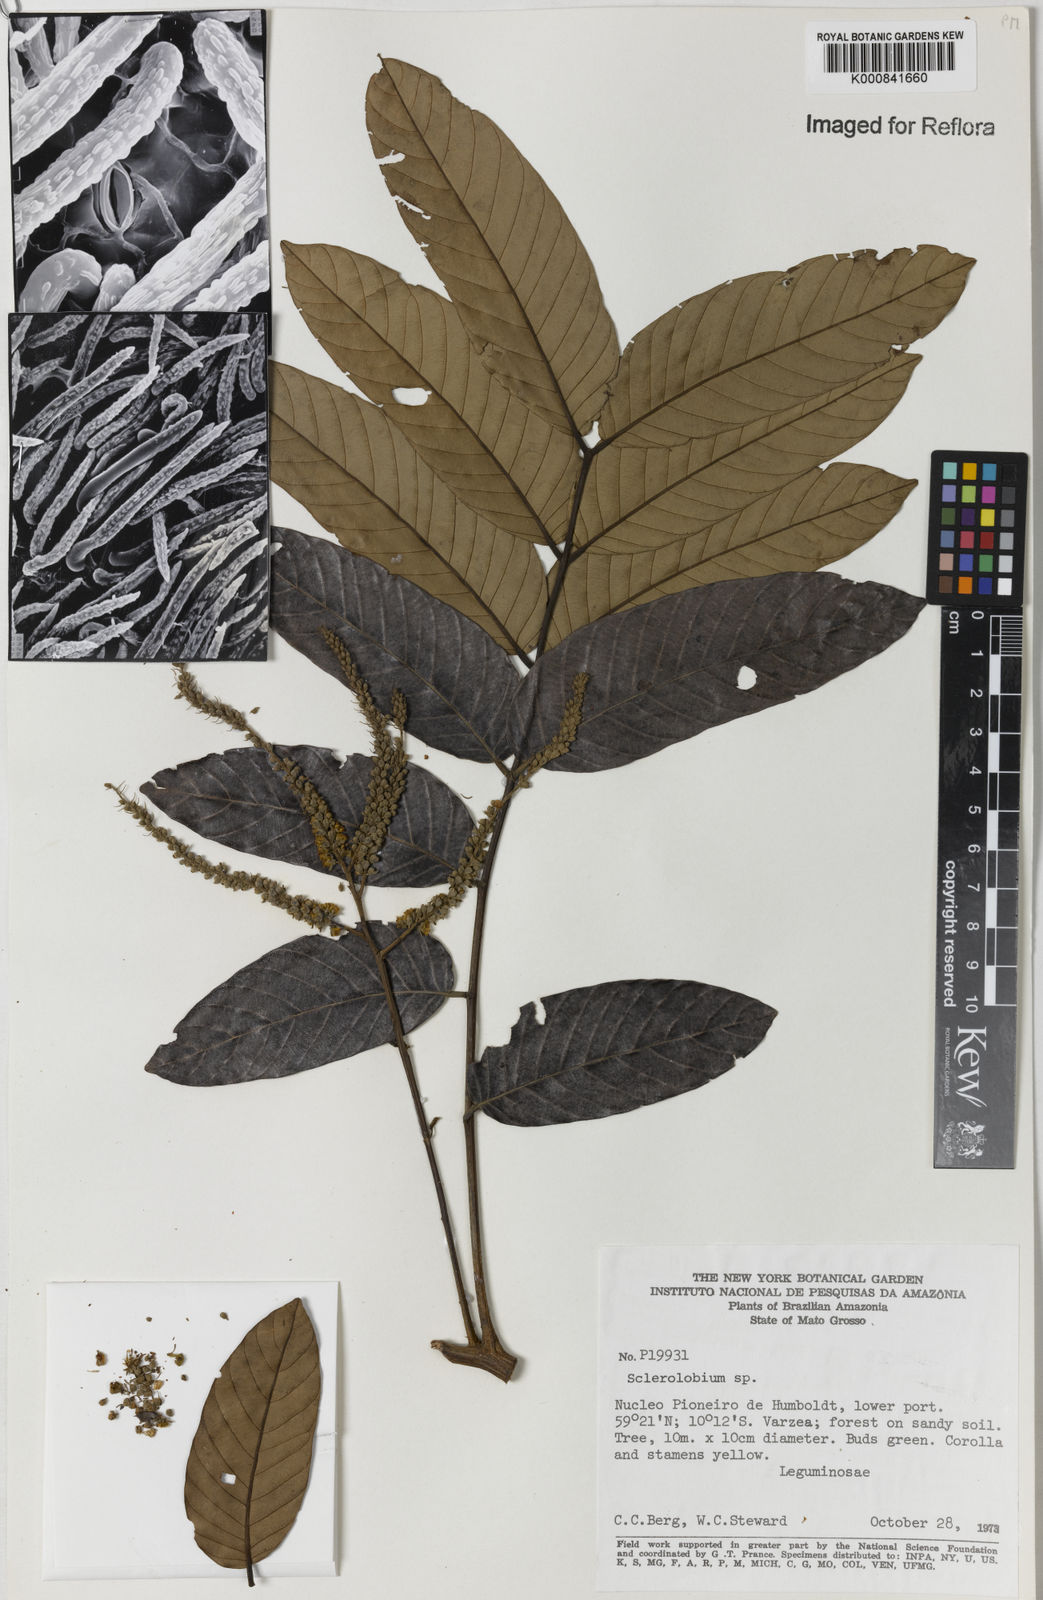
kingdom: Plantae
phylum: Tracheophyta
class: Magnoliopsida
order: Fabales
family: Fabaceae
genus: Tachigali
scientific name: Tachigali chrysophylla
